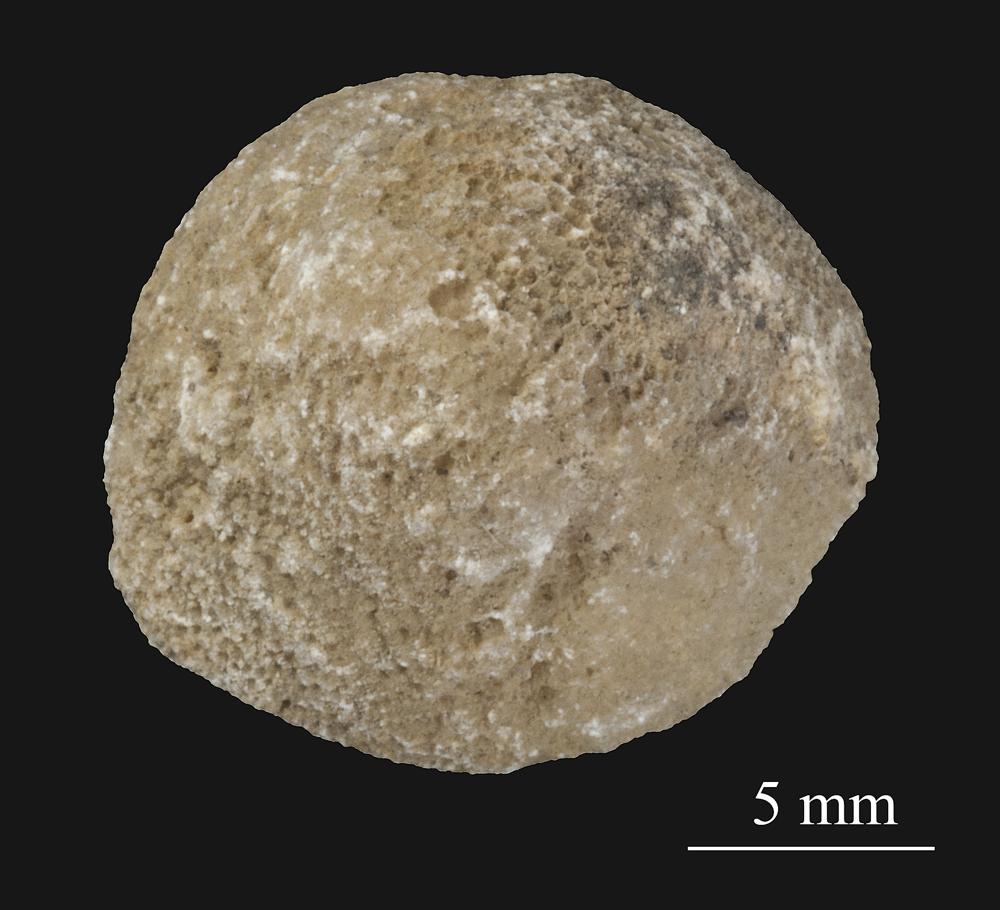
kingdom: Animalia
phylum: Bryozoa
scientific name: Bryozoa
